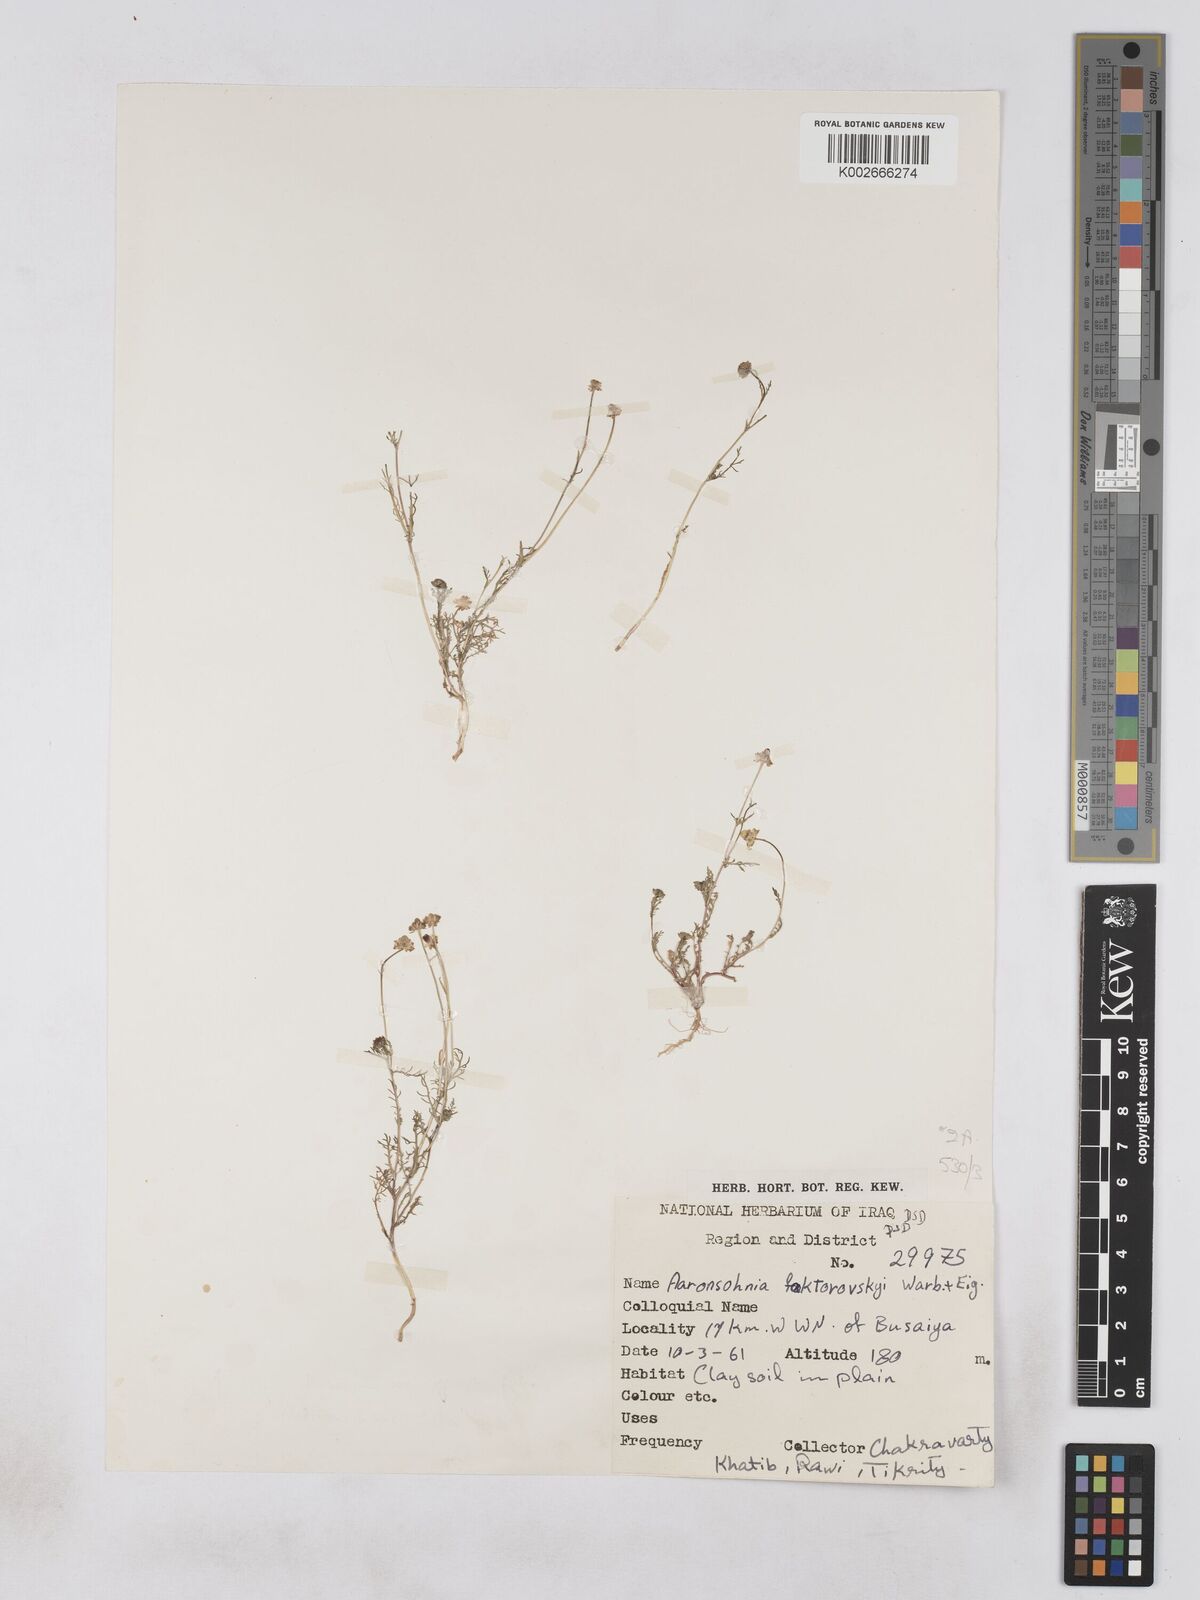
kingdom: Plantae
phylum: Tracheophyta
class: Magnoliopsida
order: Asterales
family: Asteraceae
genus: Otoglyphis
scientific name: Otoglyphis factorovskyi
